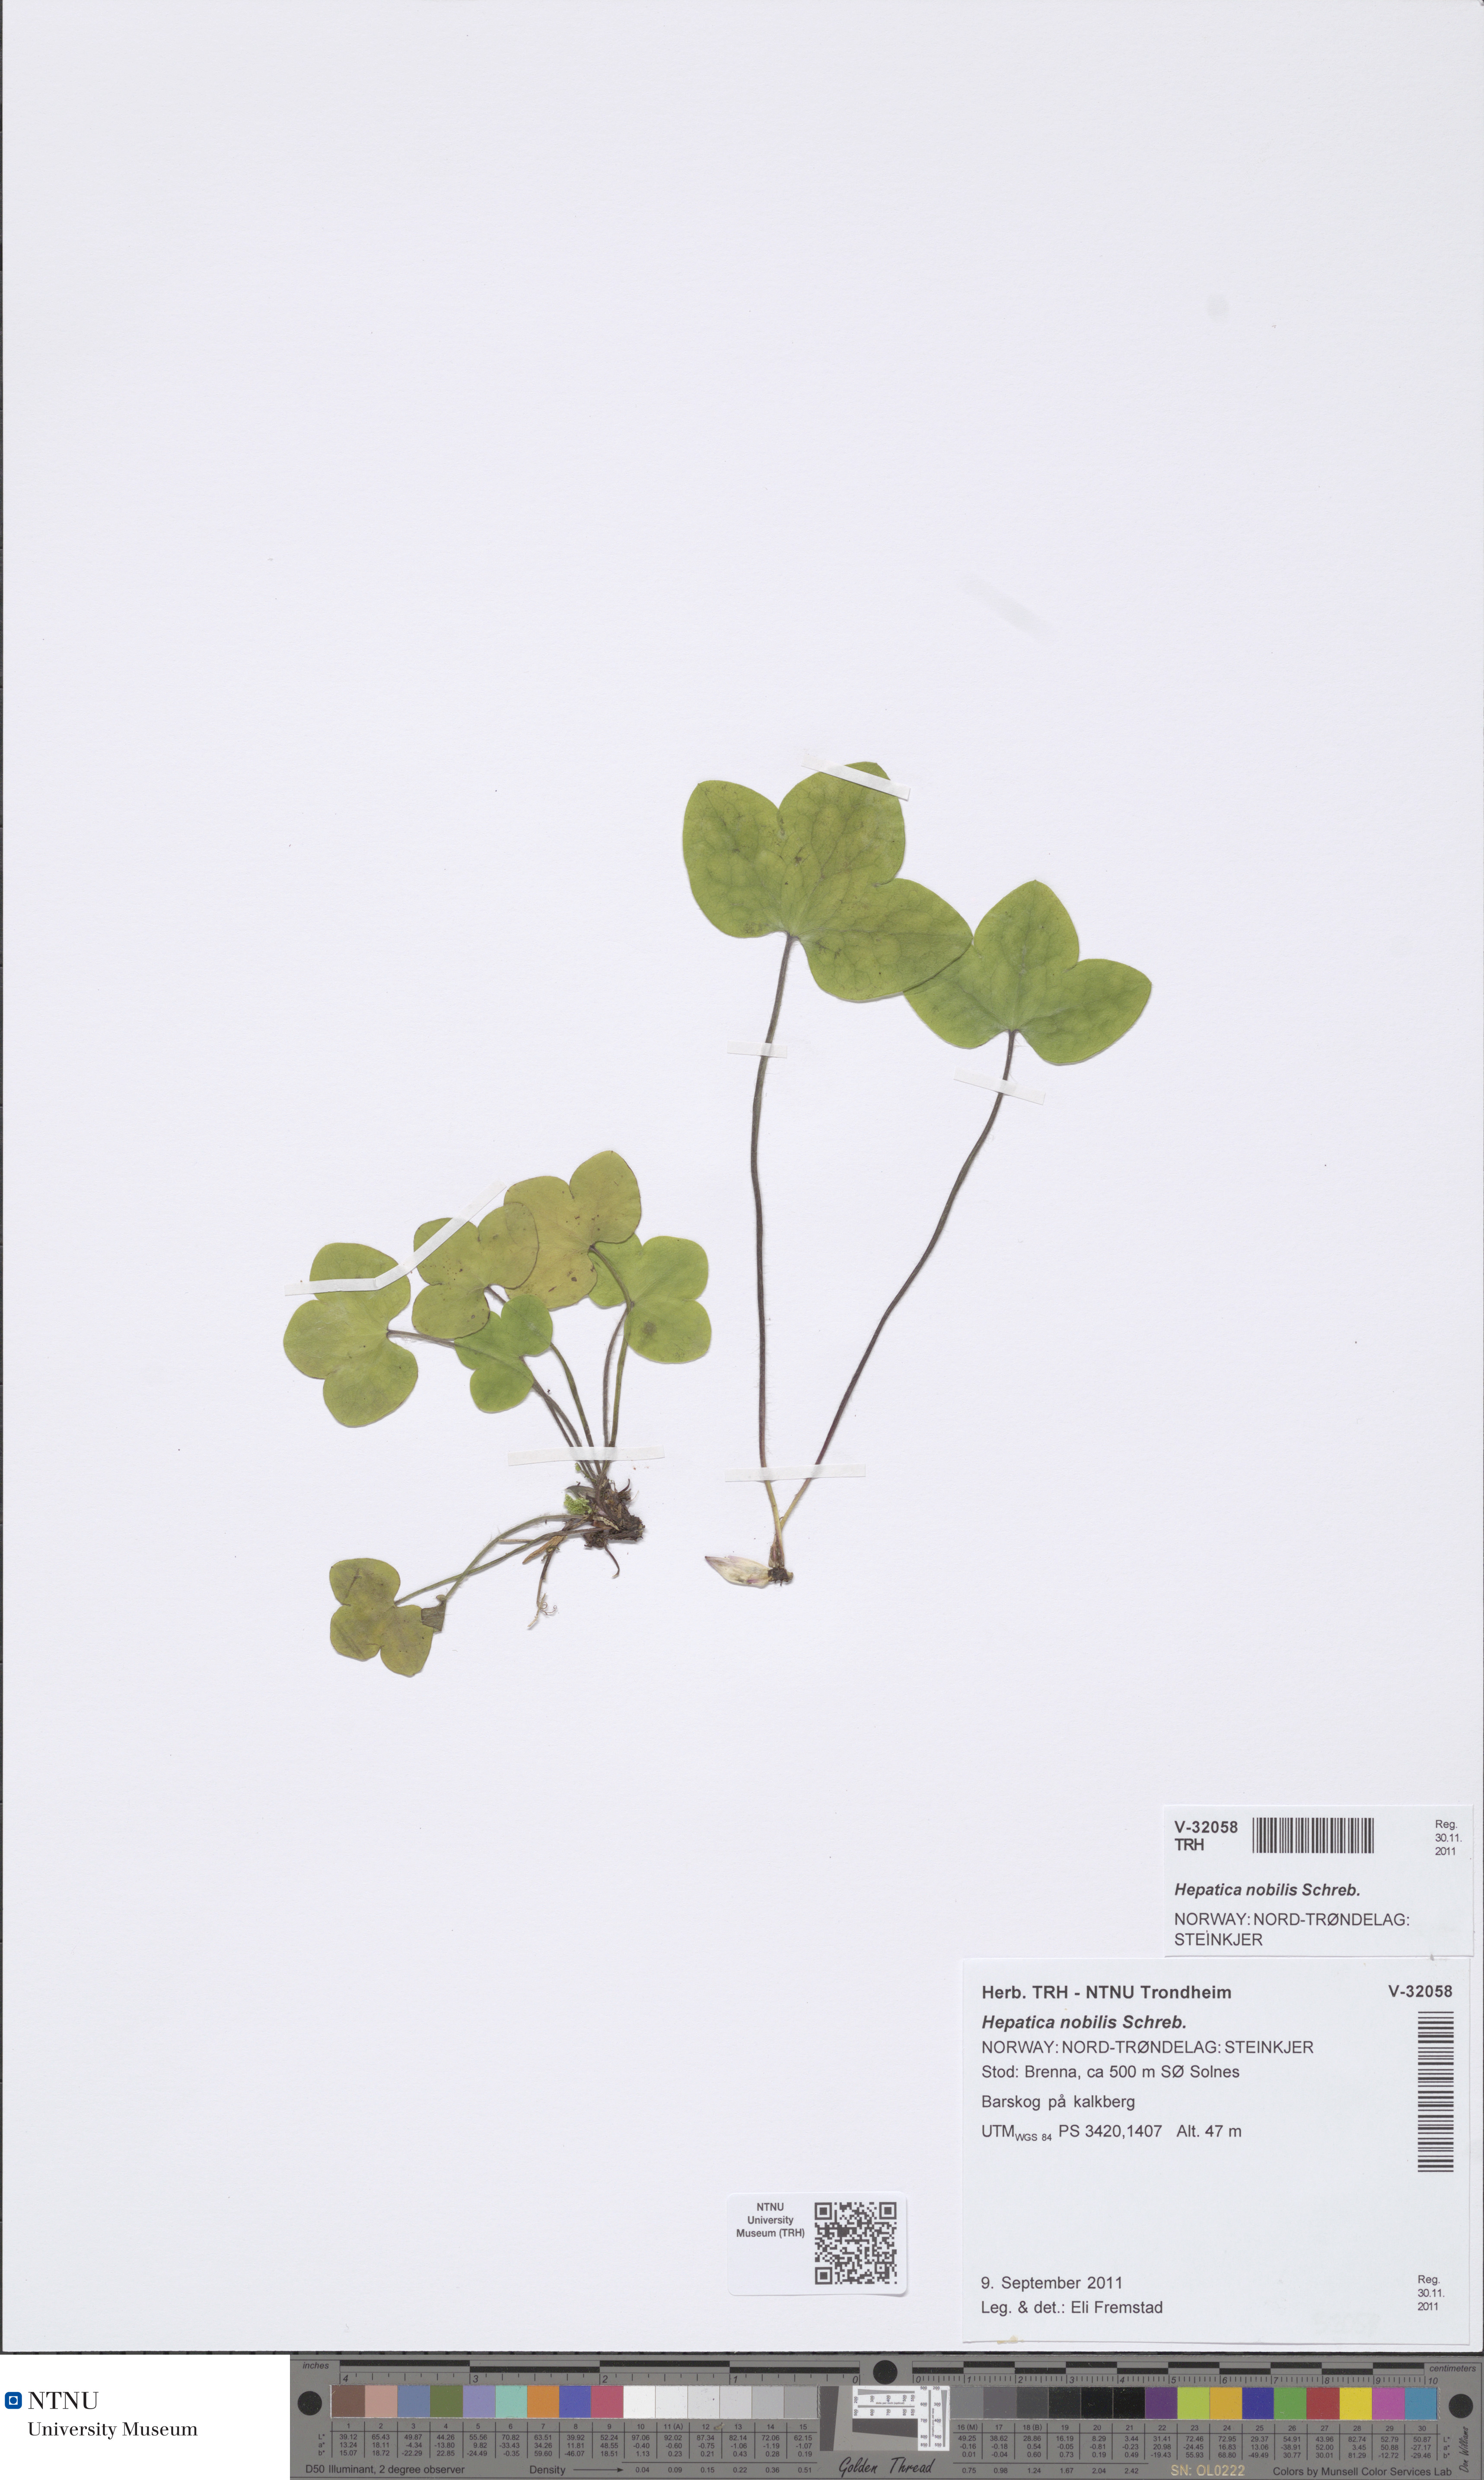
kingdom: Plantae
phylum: Tracheophyta
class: Magnoliopsida
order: Ranunculales
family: Ranunculaceae
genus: Hepatica
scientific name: Hepatica nobilis
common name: Liverleaf
